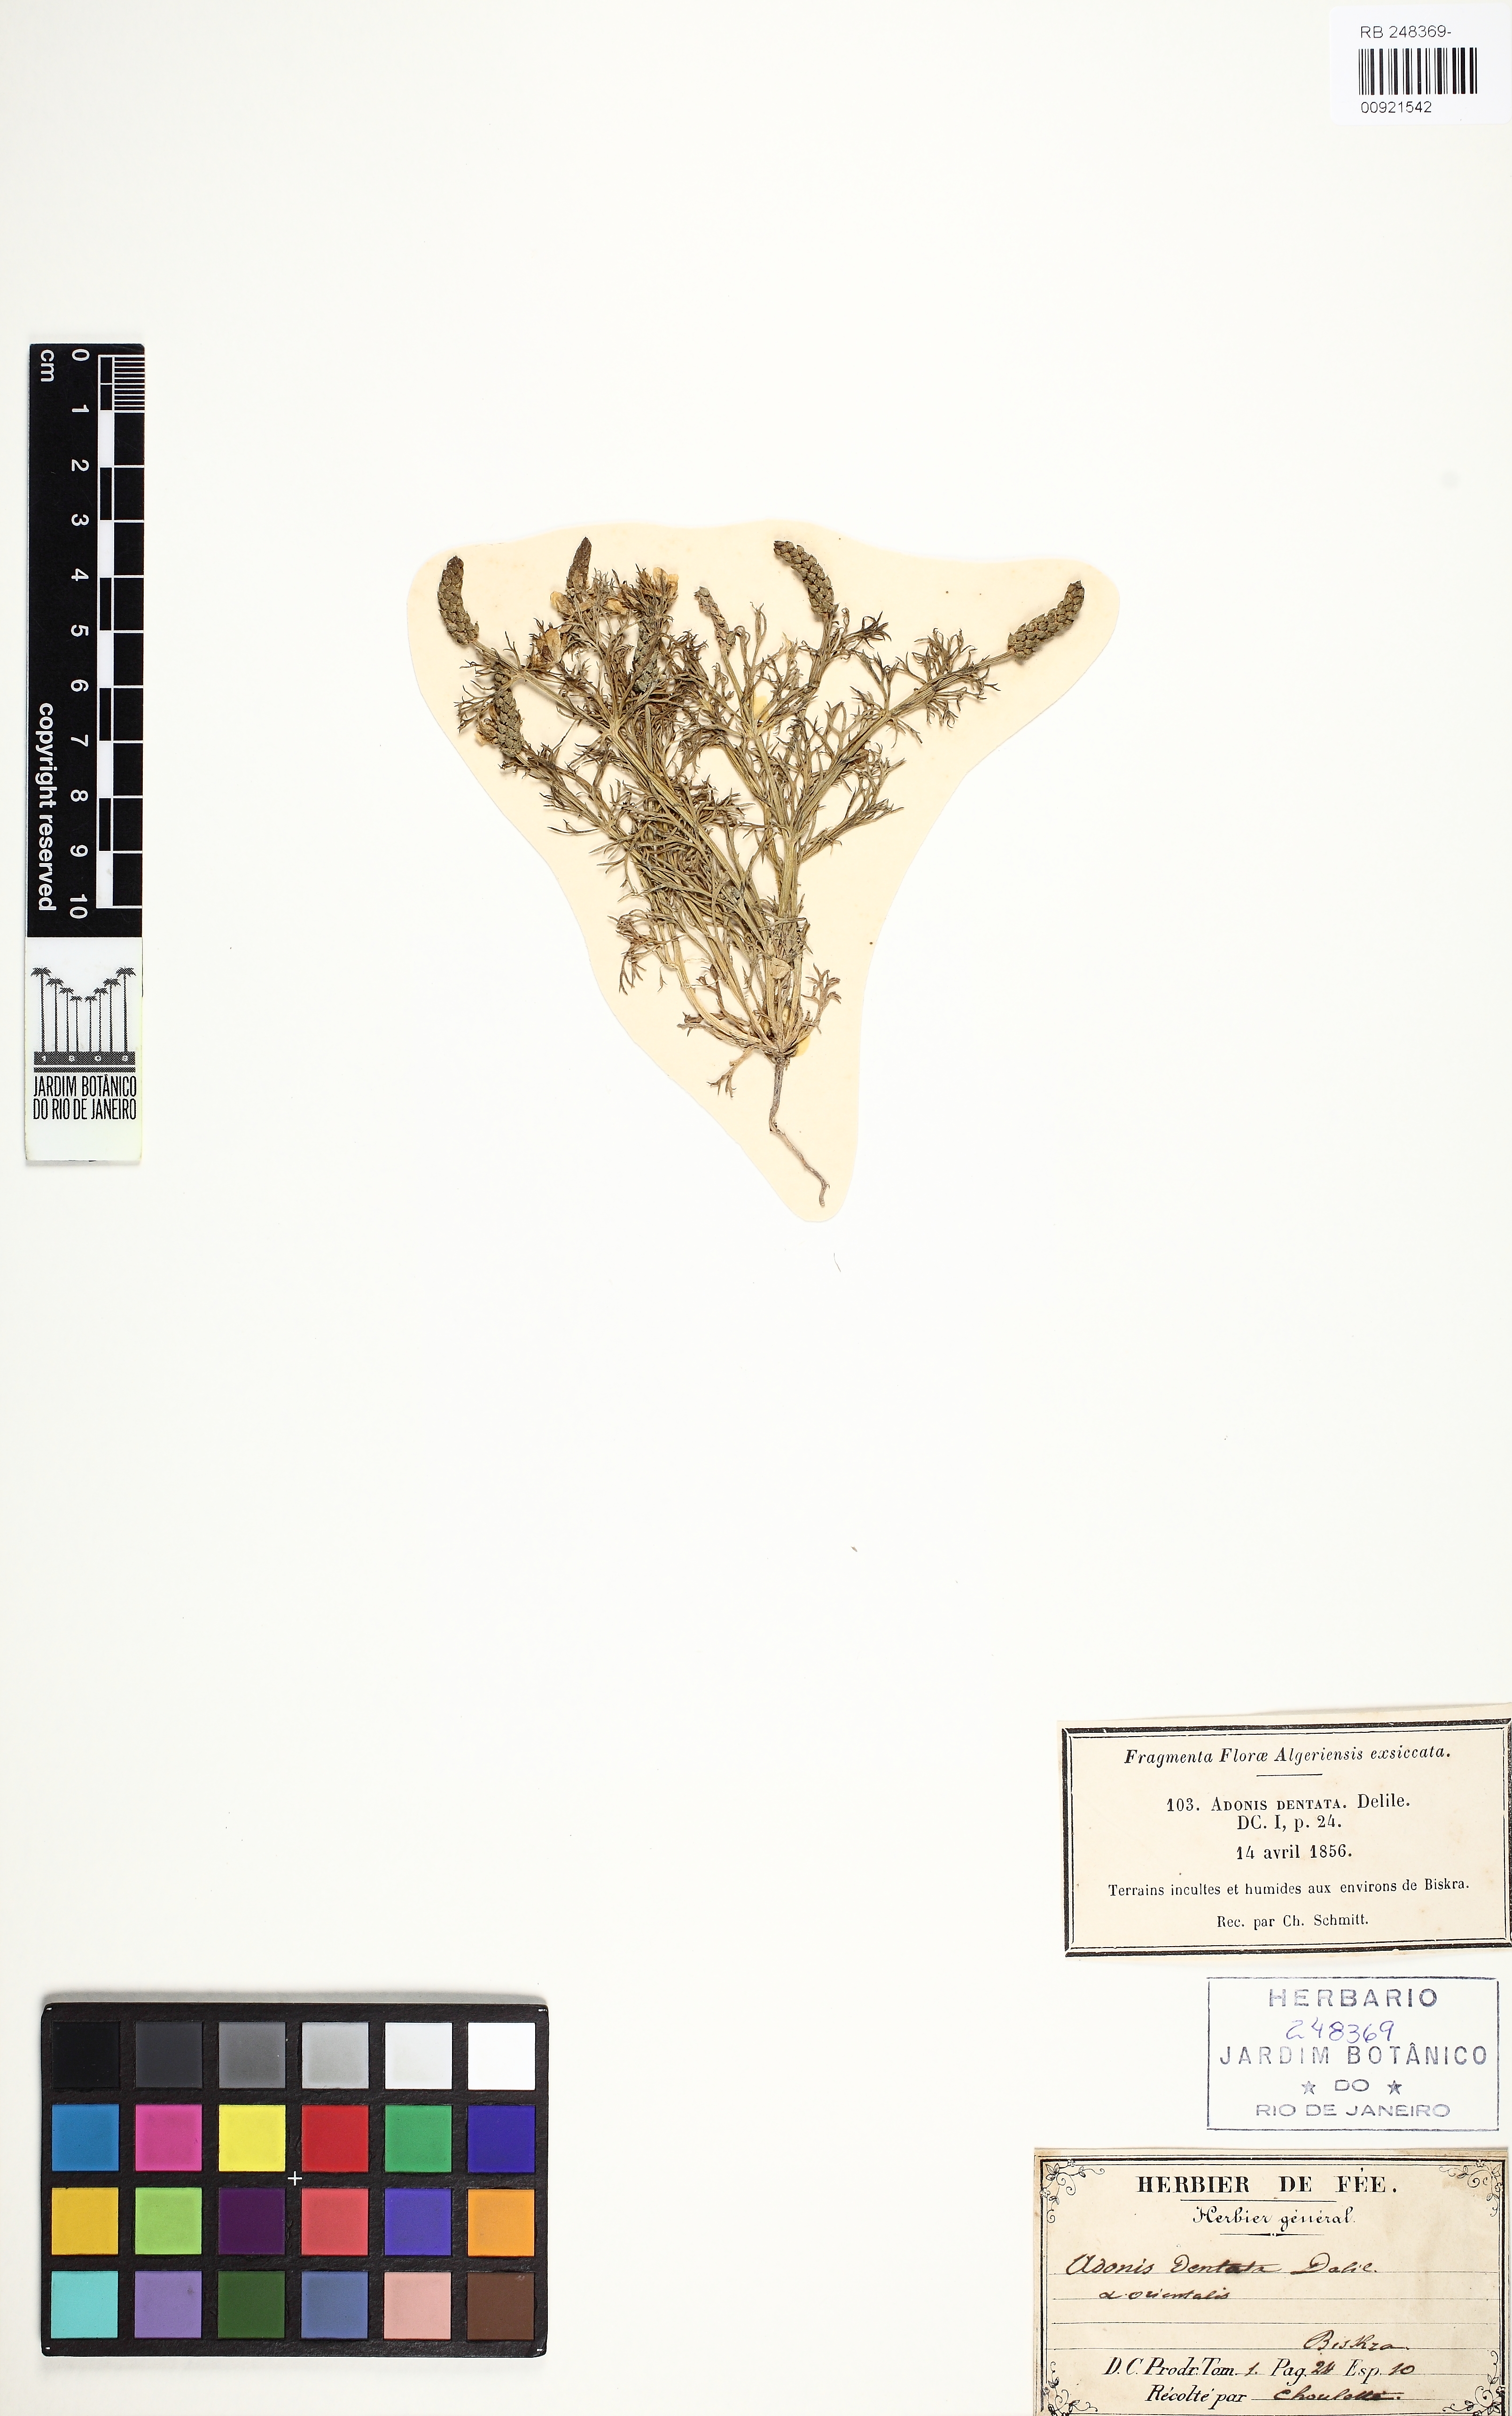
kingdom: Plantae
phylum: Tracheophyta
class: Magnoliopsida
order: Ranunculales
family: Ranunculaceae
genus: Adonis
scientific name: Adonis dentata
